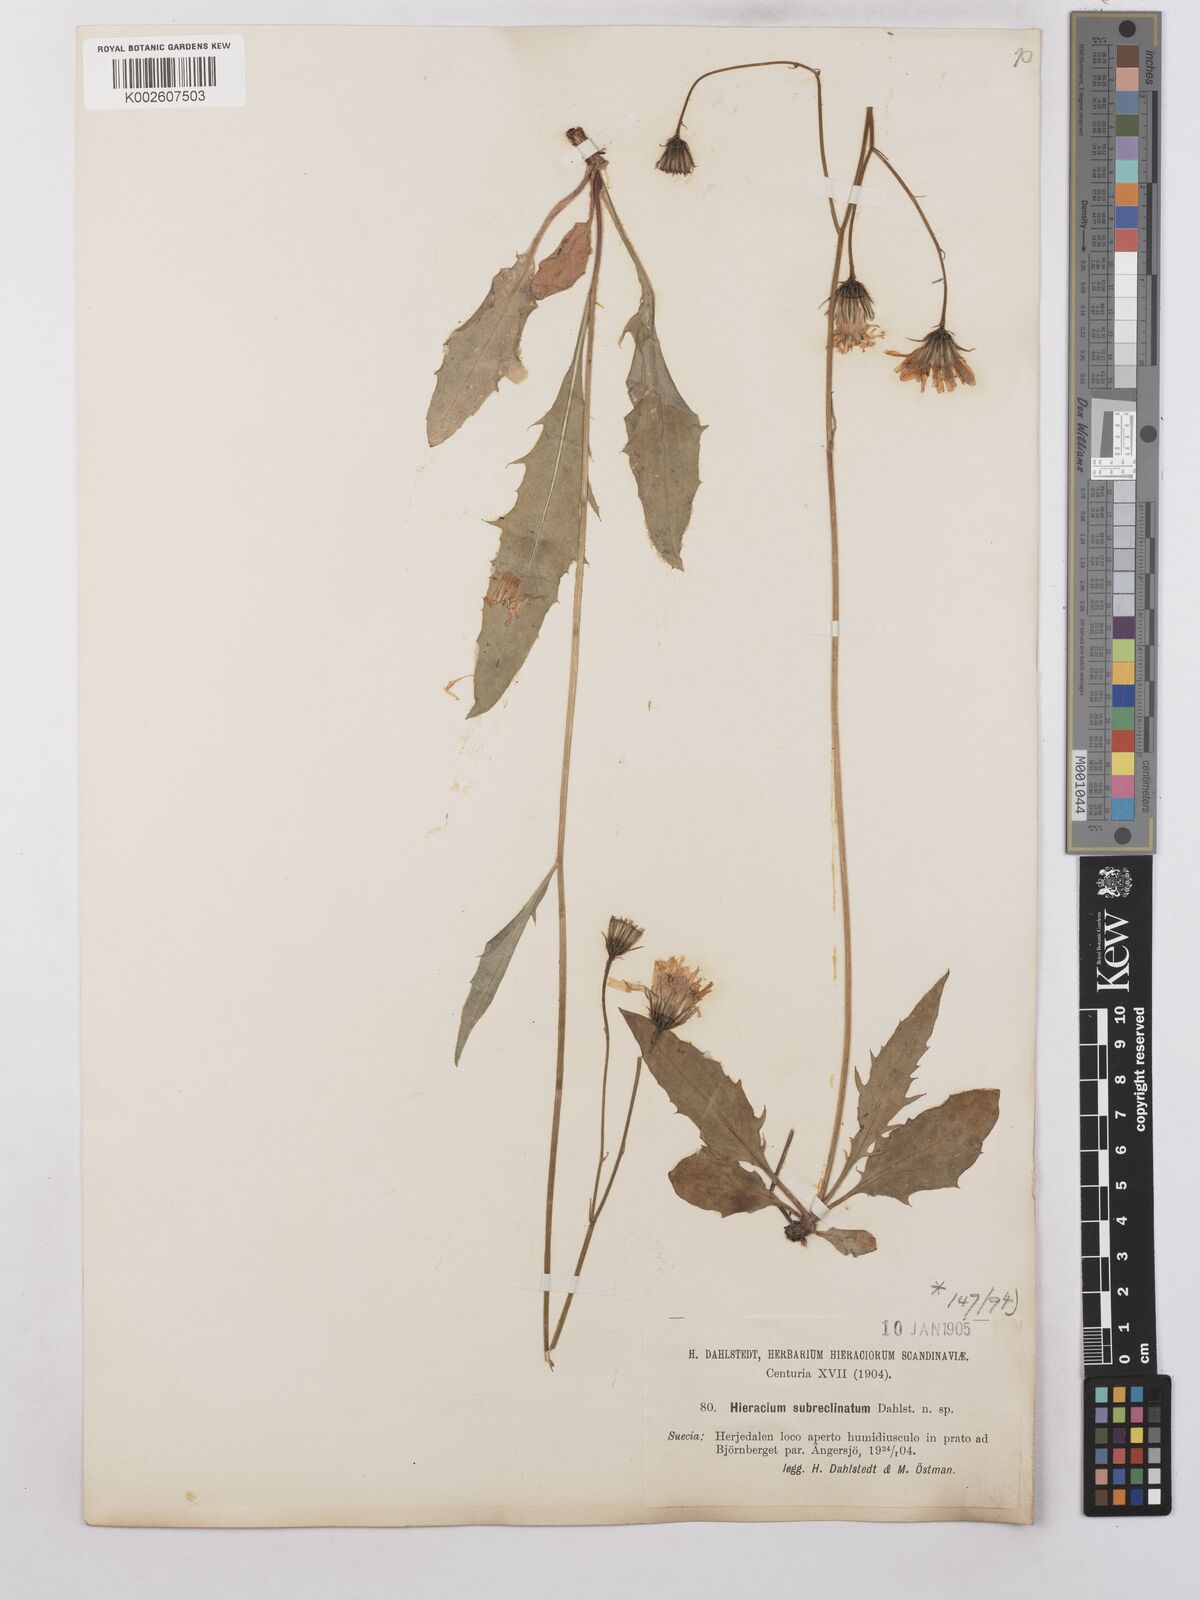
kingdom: Plantae
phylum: Tracheophyta
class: Magnoliopsida
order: Asterales
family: Asteraceae
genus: Hieracium
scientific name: Hieracium caesium
